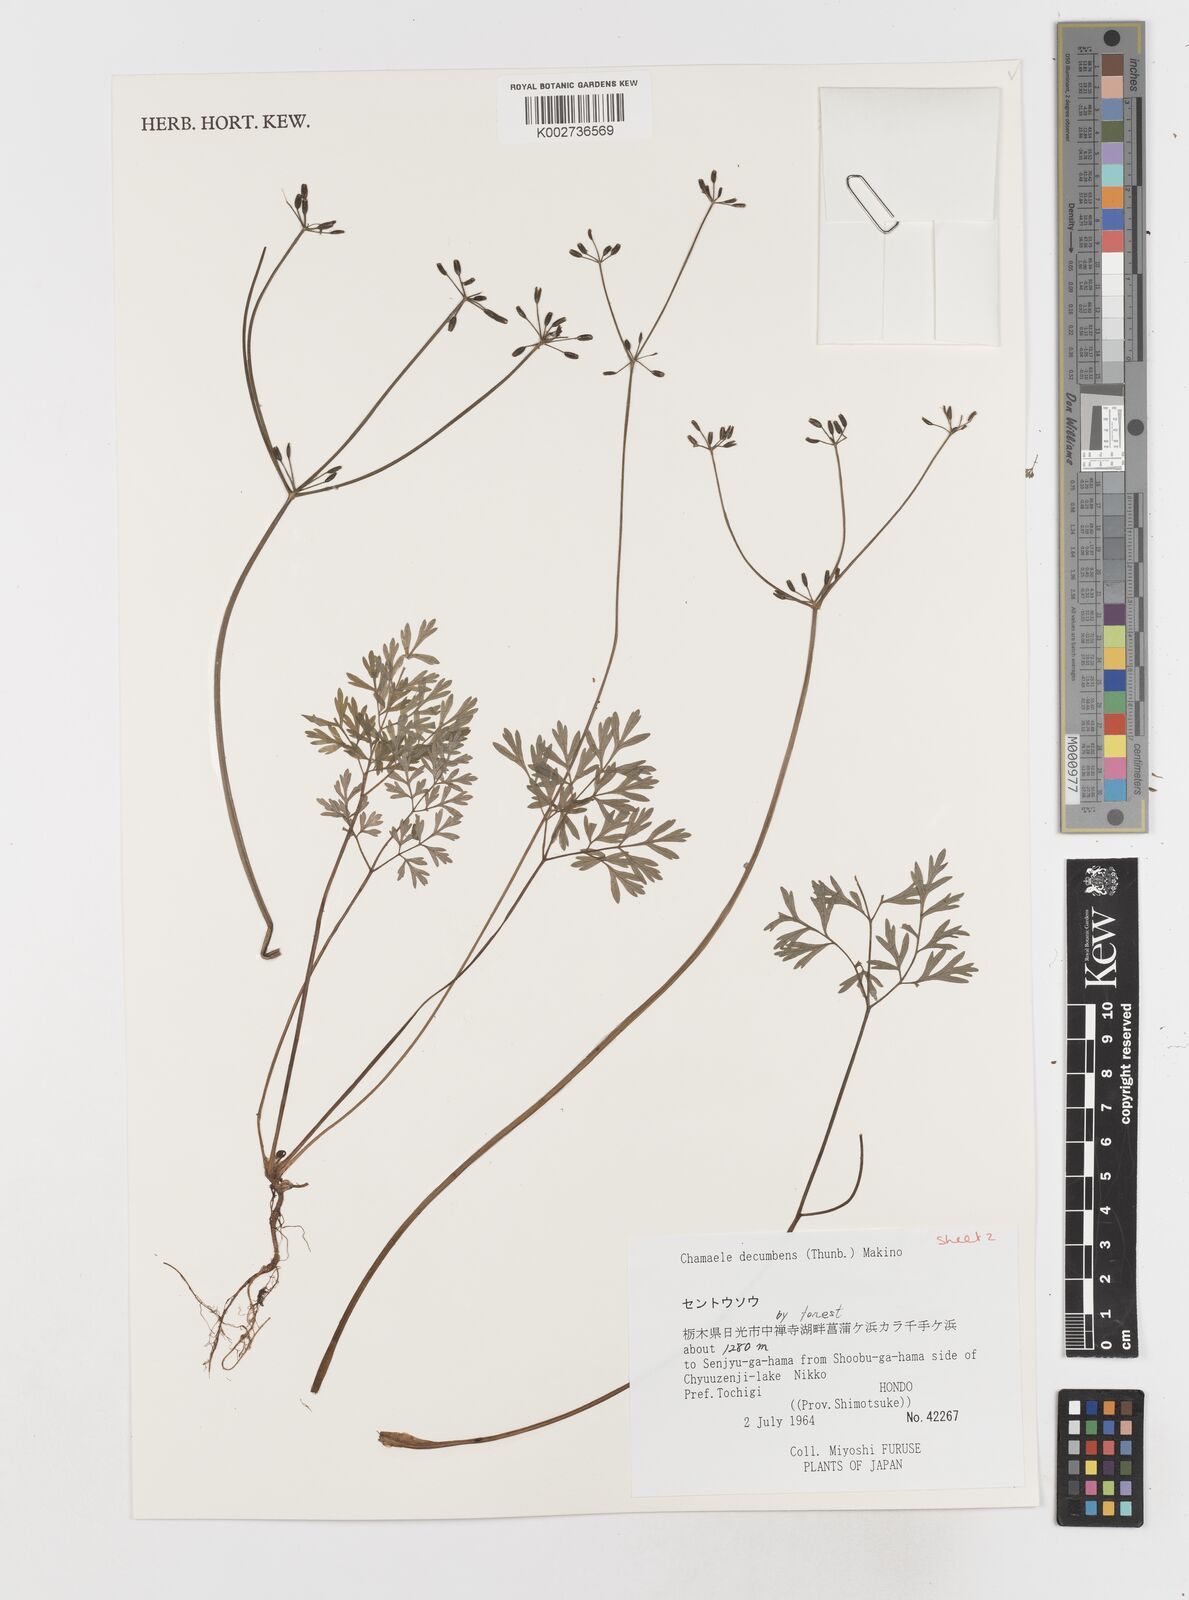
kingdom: Plantae
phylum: Tracheophyta
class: Magnoliopsida
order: Apiales
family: Apiaceae
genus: Aegopodium
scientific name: Aegopodium decumbens
